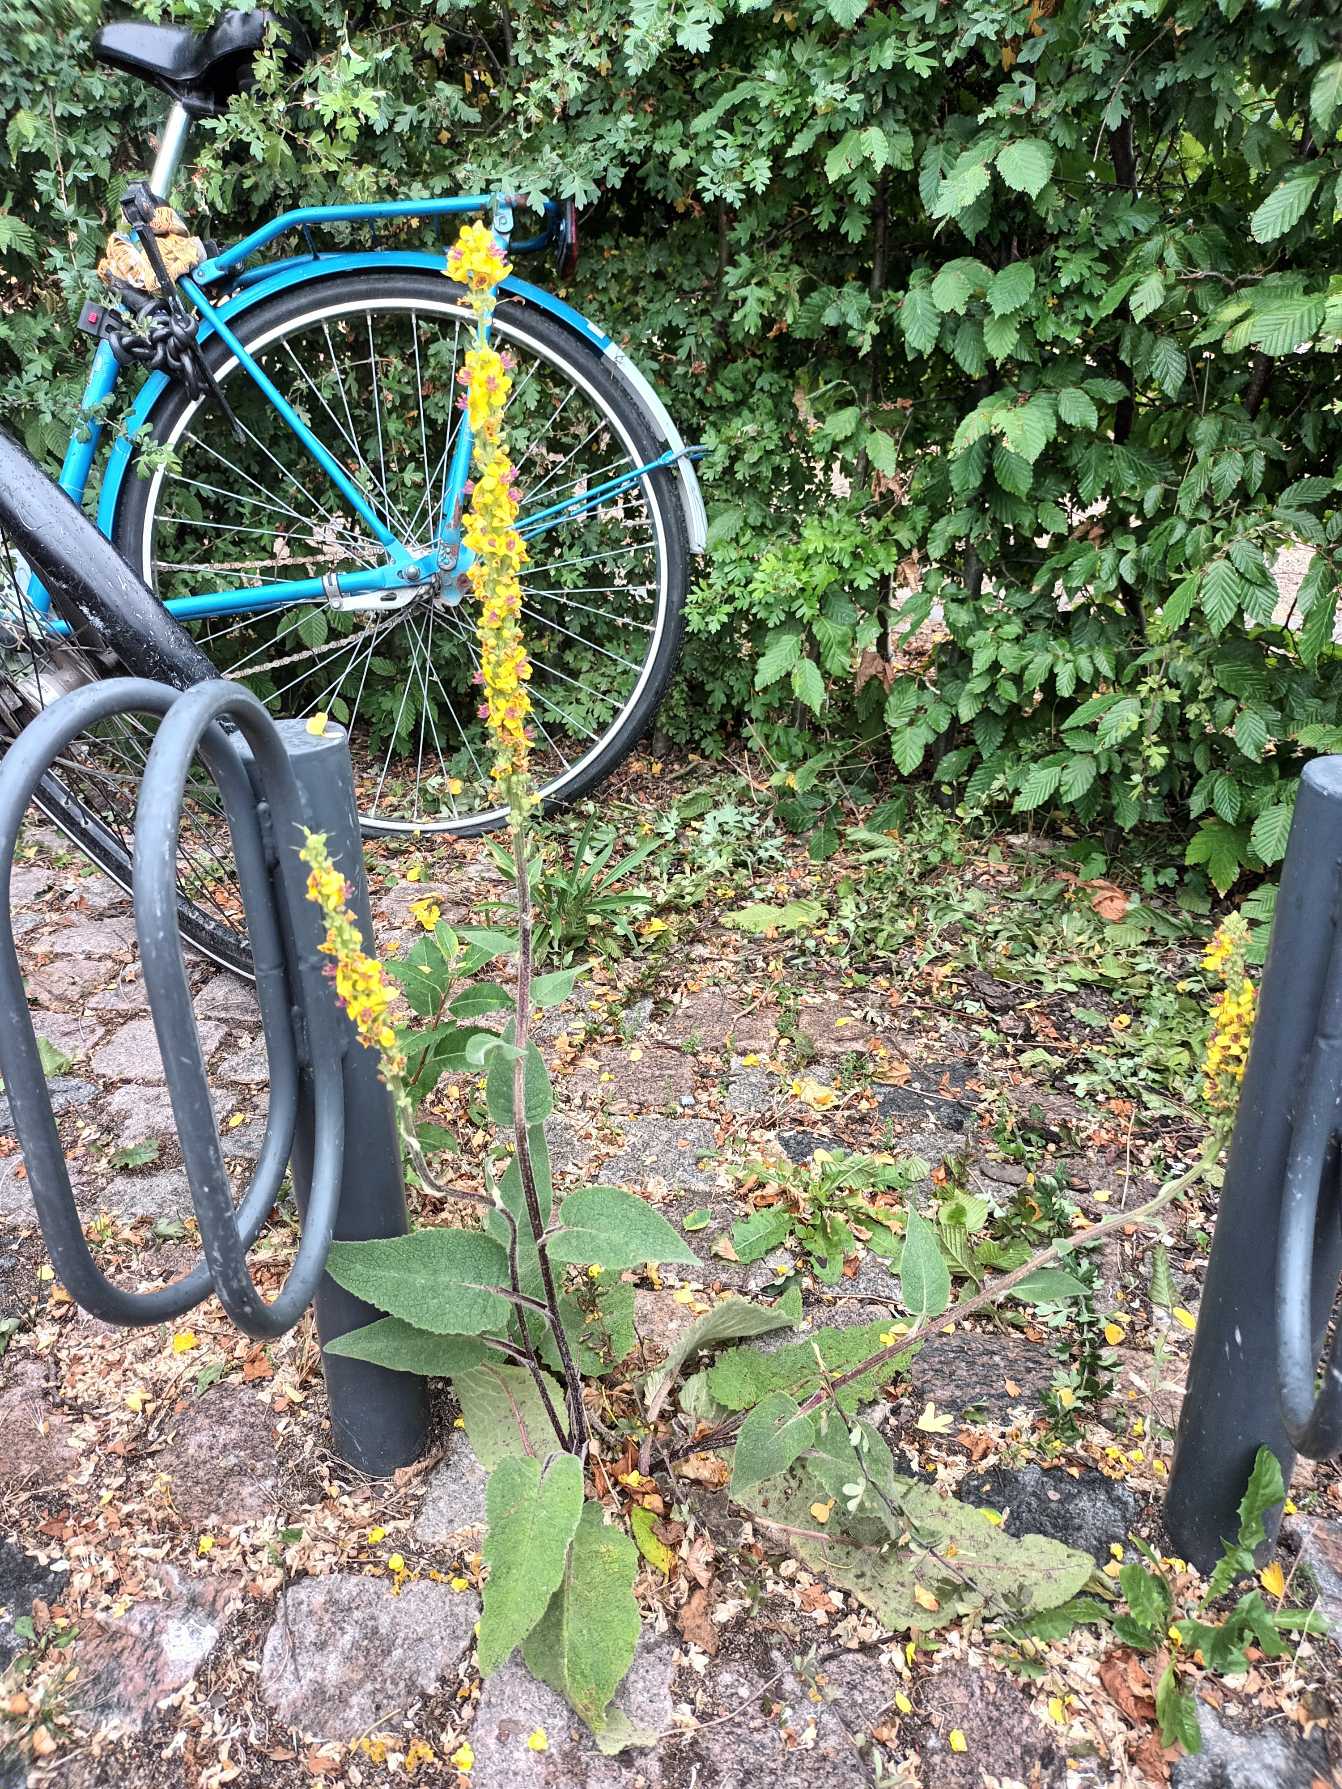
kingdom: Plantae
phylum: Tracheophyta
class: Magnoliopsida
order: Lamiales
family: Scrophulariaceae
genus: Verbascum
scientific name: Verbascum nigrum
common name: Mørk kongelys
